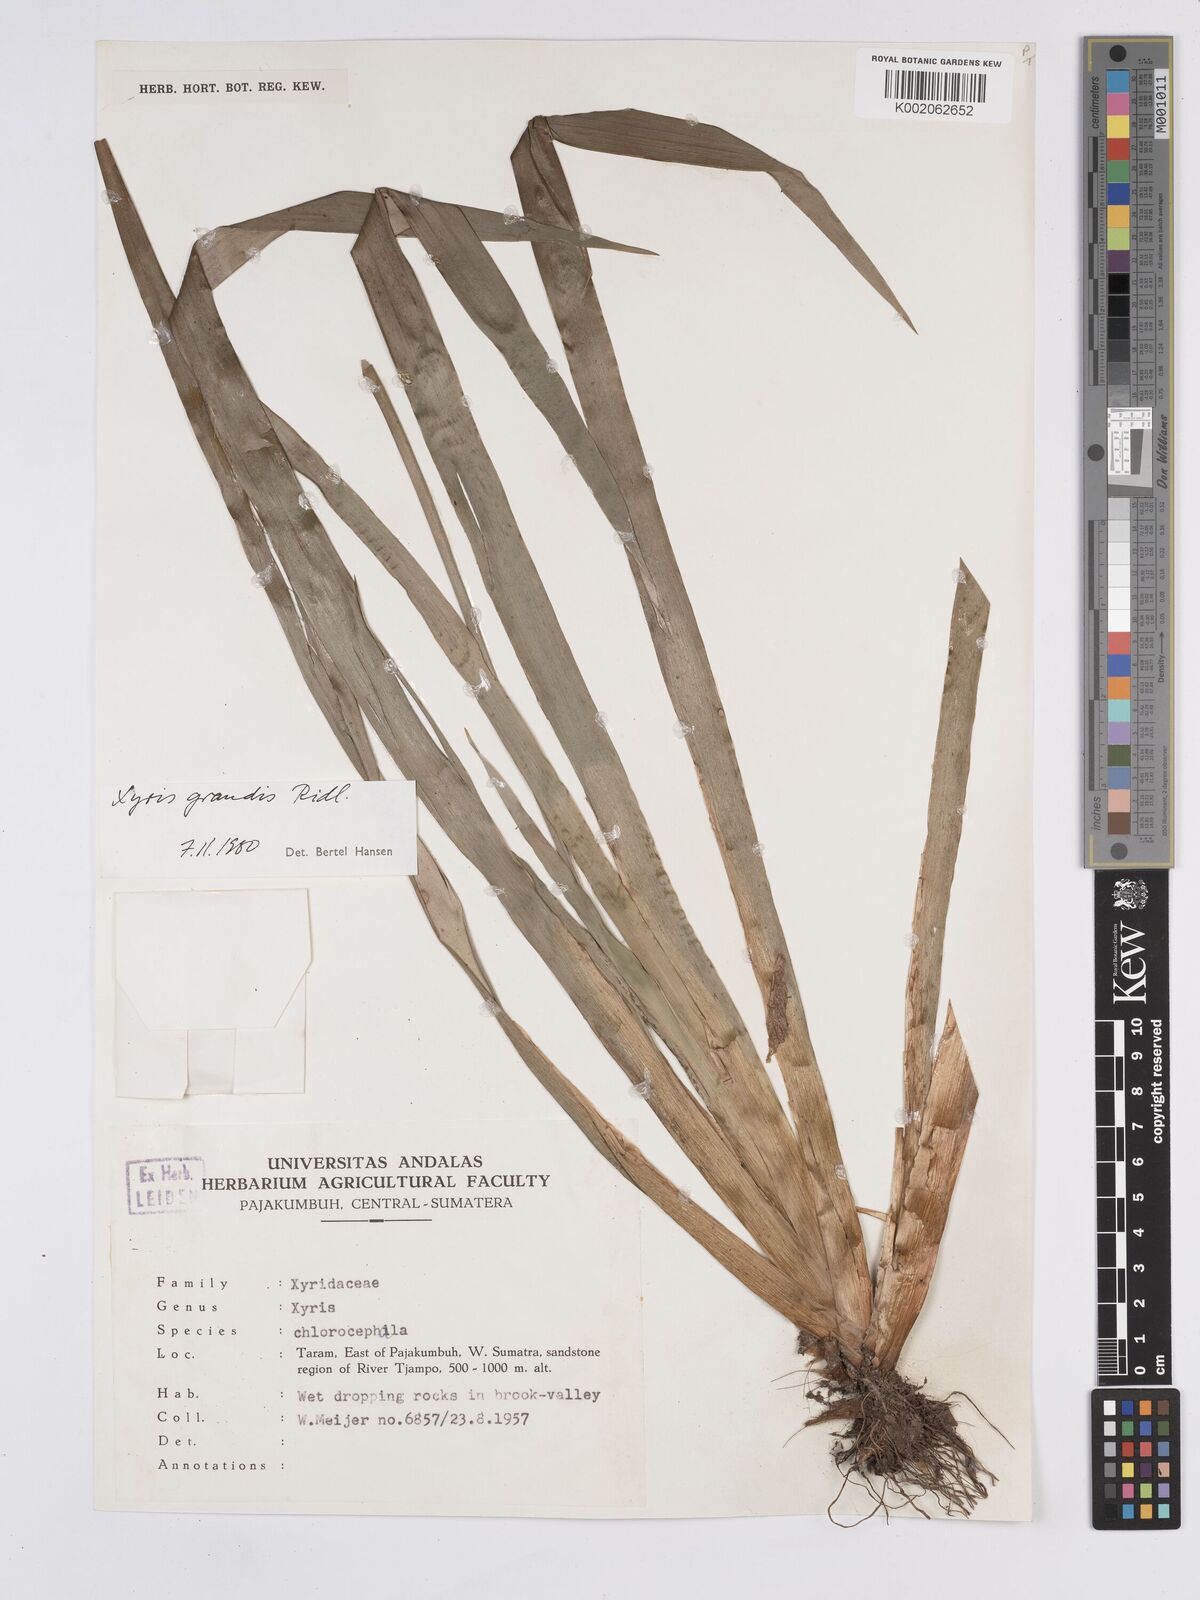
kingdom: Plantae
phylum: Tracheophyta
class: Liliopsida
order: Poales
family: Xyridaceae
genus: Xyris
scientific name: Xyris grandis
